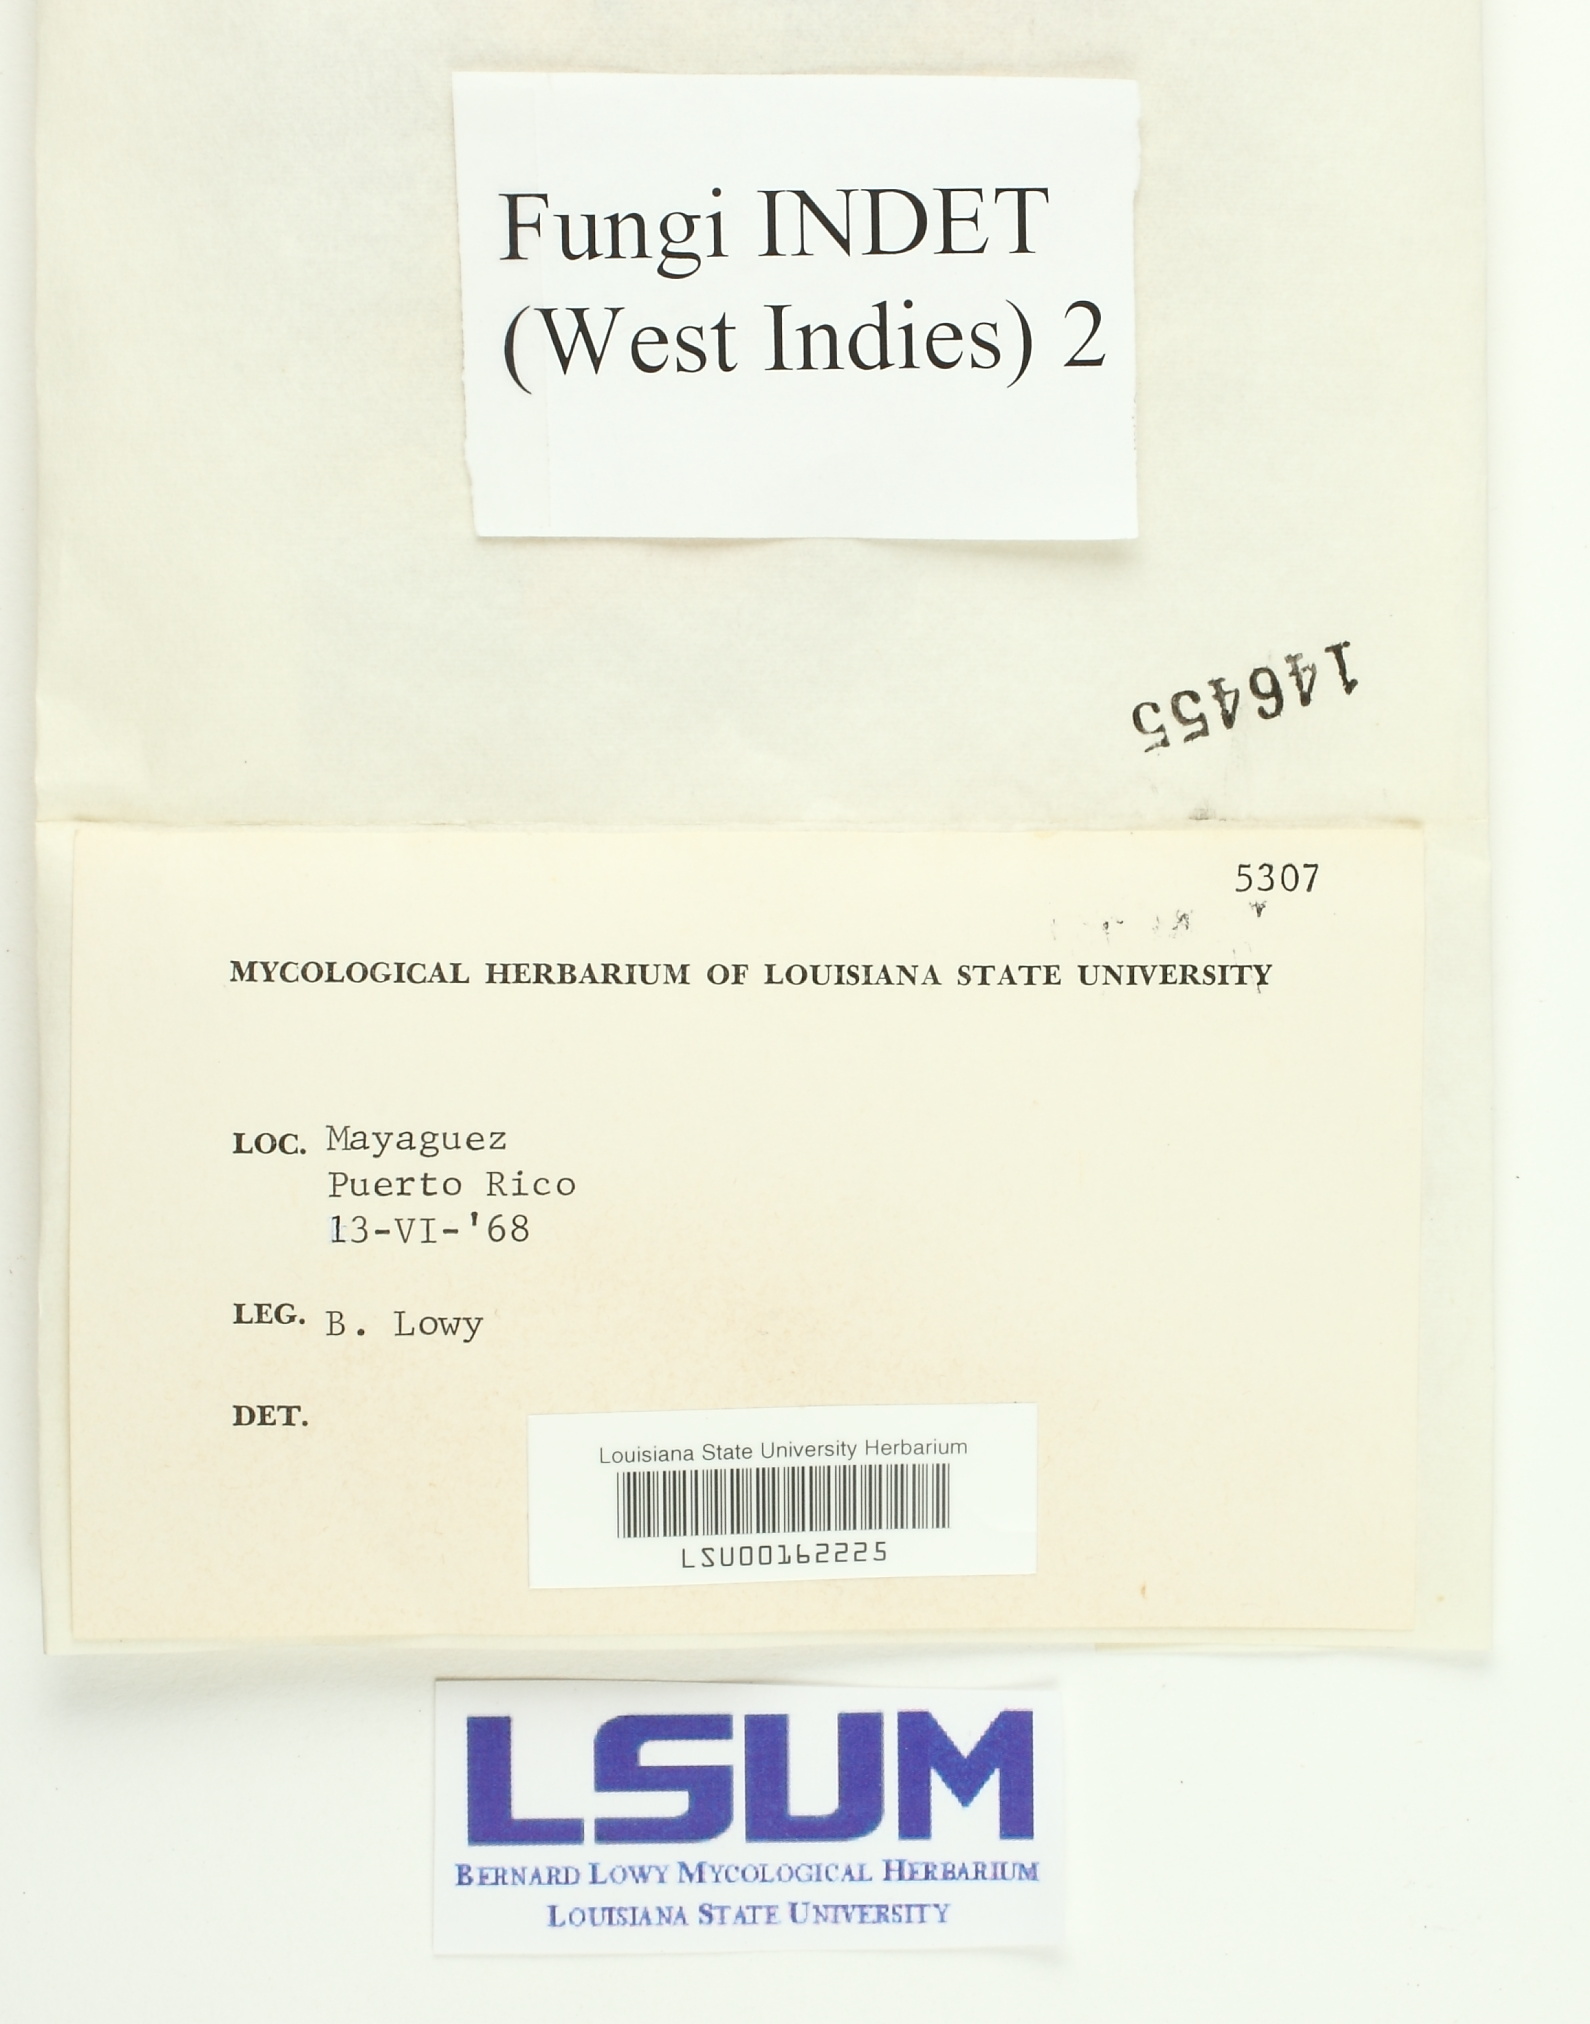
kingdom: Fungi
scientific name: Fungi
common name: Fungi
